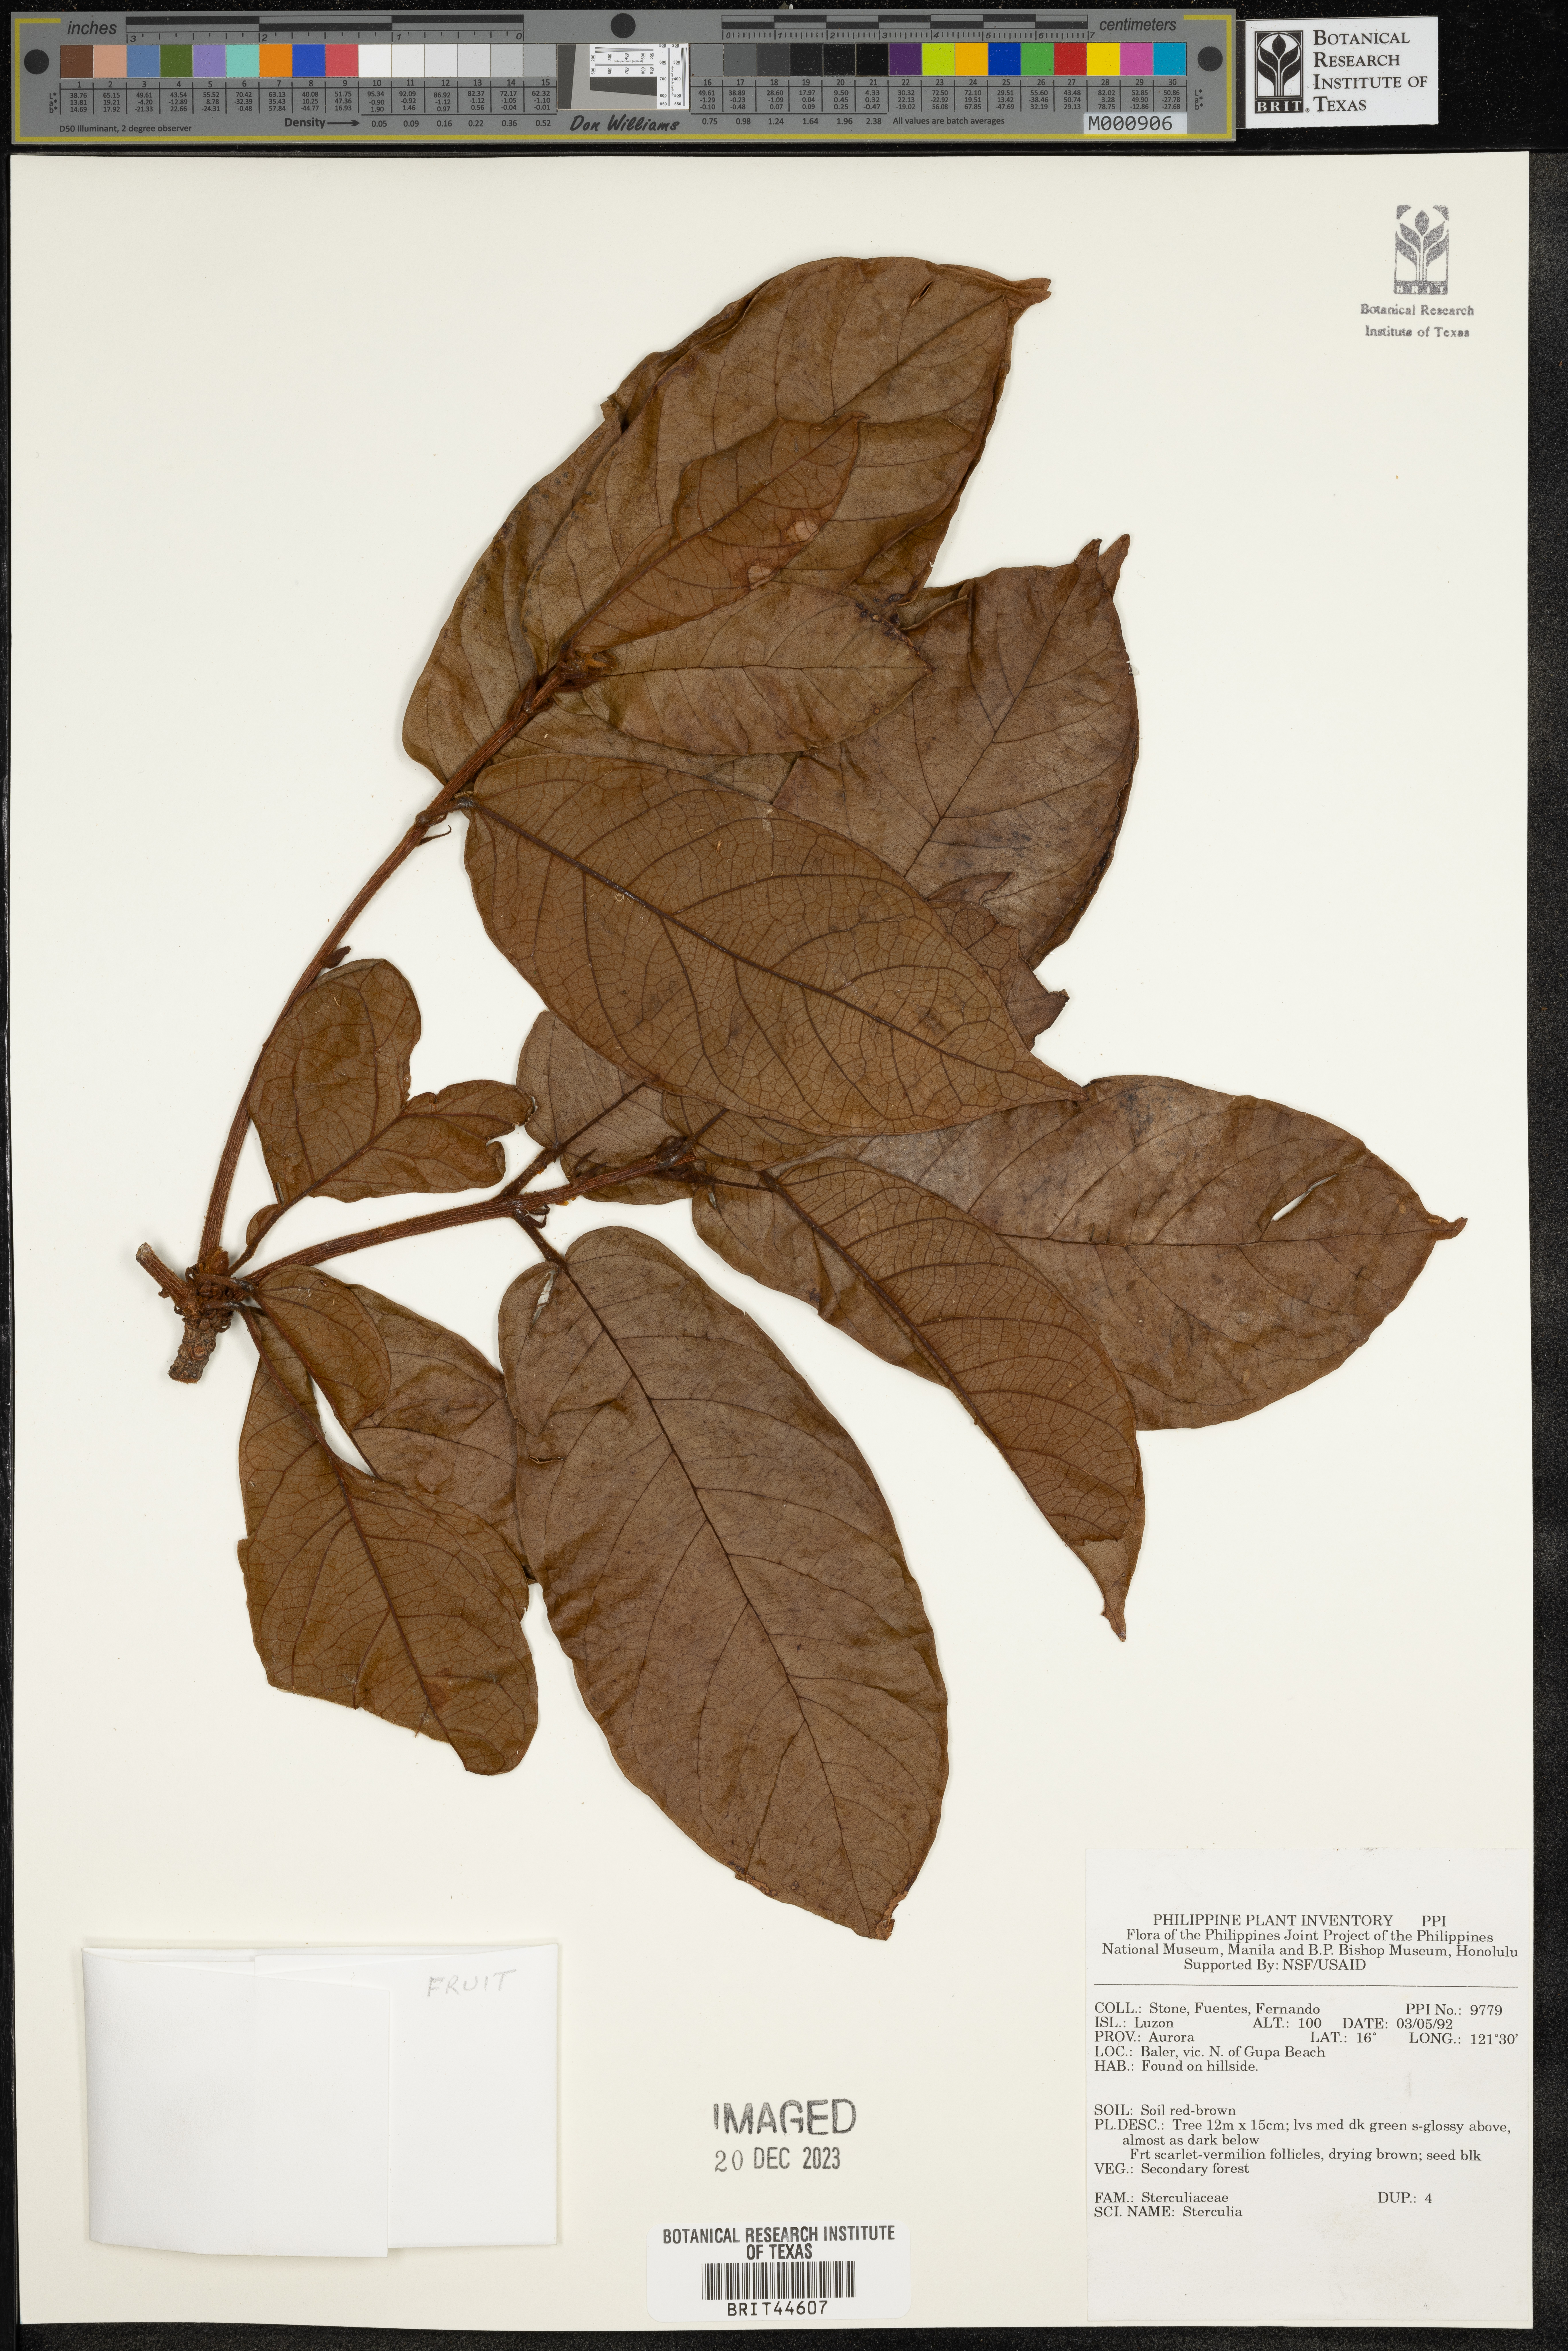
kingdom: Plantae
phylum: Tracheophyta
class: Magnoliopsida
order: Malvales
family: Malvaceae
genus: Sterculia
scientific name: Sterculia
